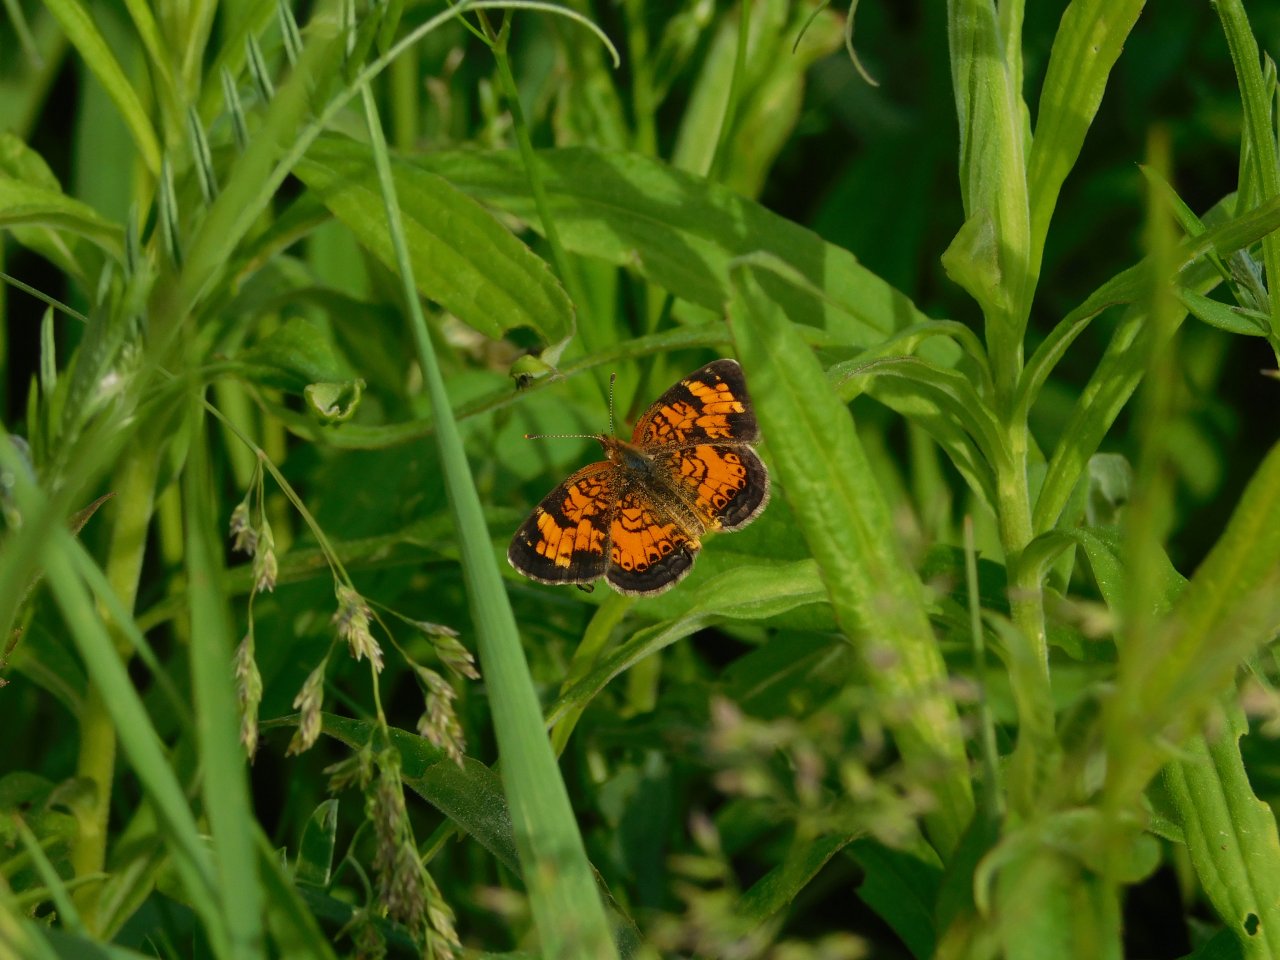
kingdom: Animalia
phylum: Arthropoda
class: Insecta
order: Lepidoptera
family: Nymphalidae
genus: Phyciodes
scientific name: Phyciodes tharos
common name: Pearl Crescent
